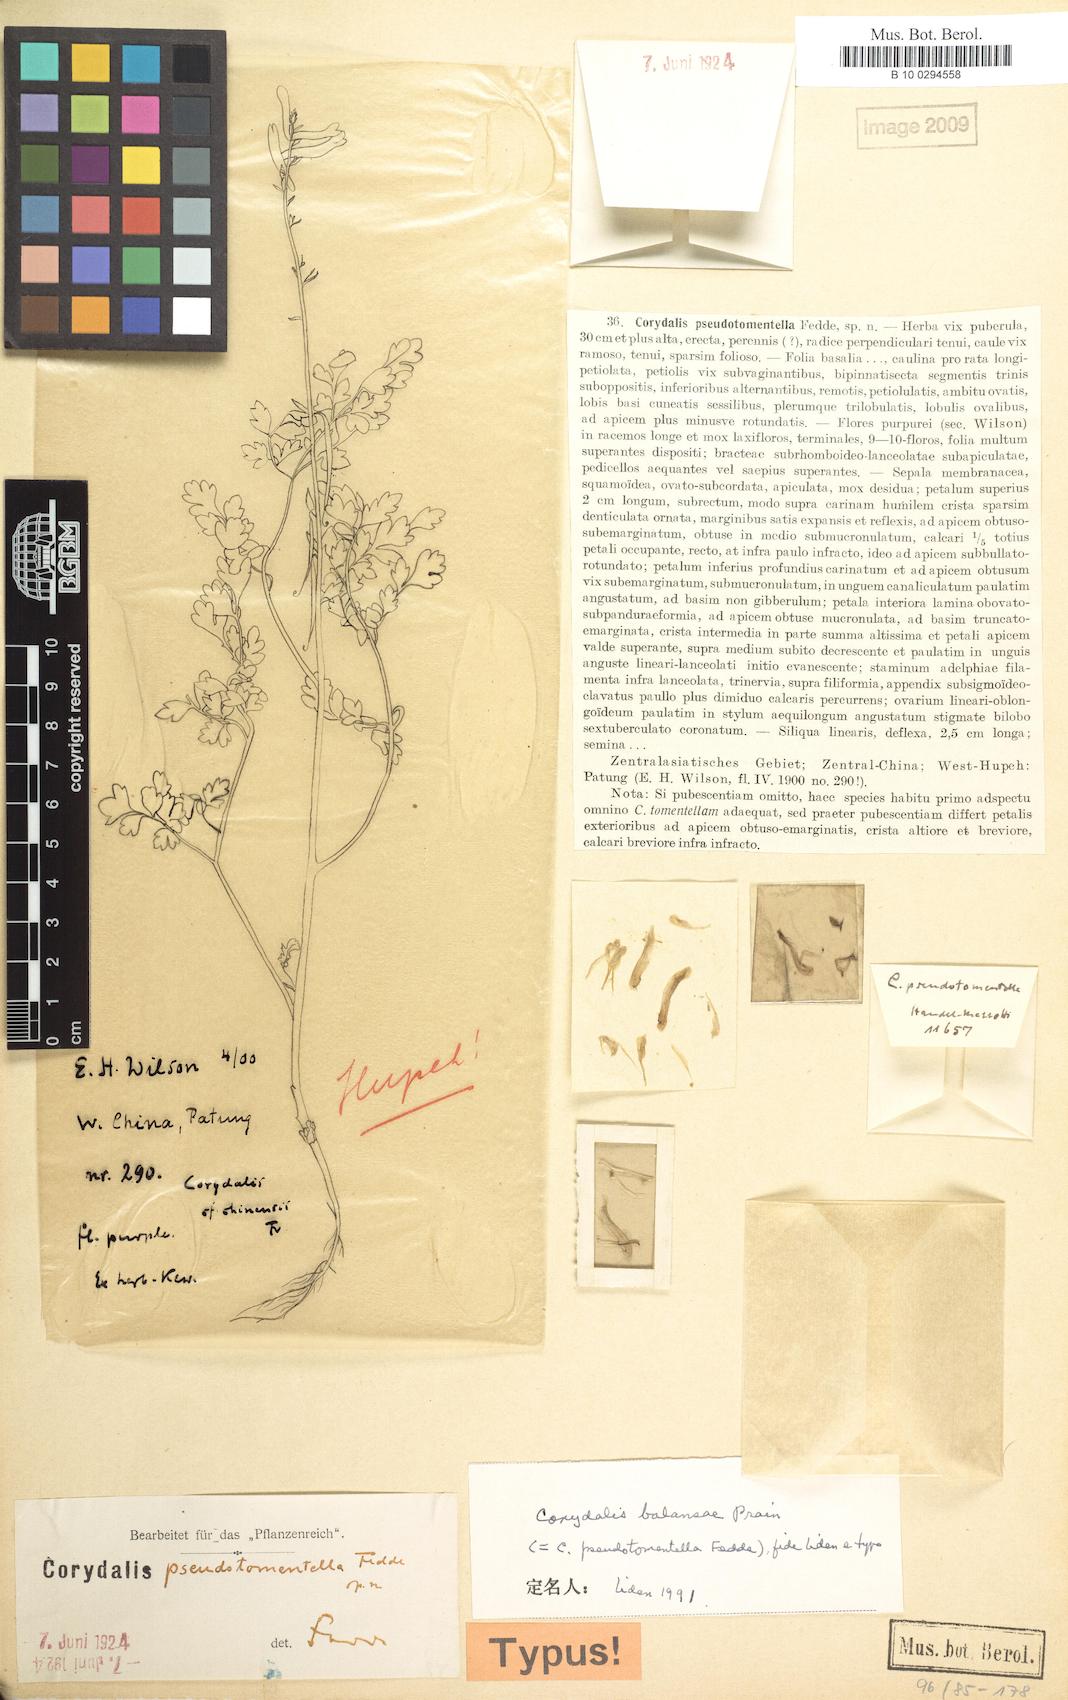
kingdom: Plantae
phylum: Tracheophyta
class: Magnoliopsida
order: Ranunculales
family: Papaveraceae
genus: Corydalis
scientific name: Corydalis balansae
